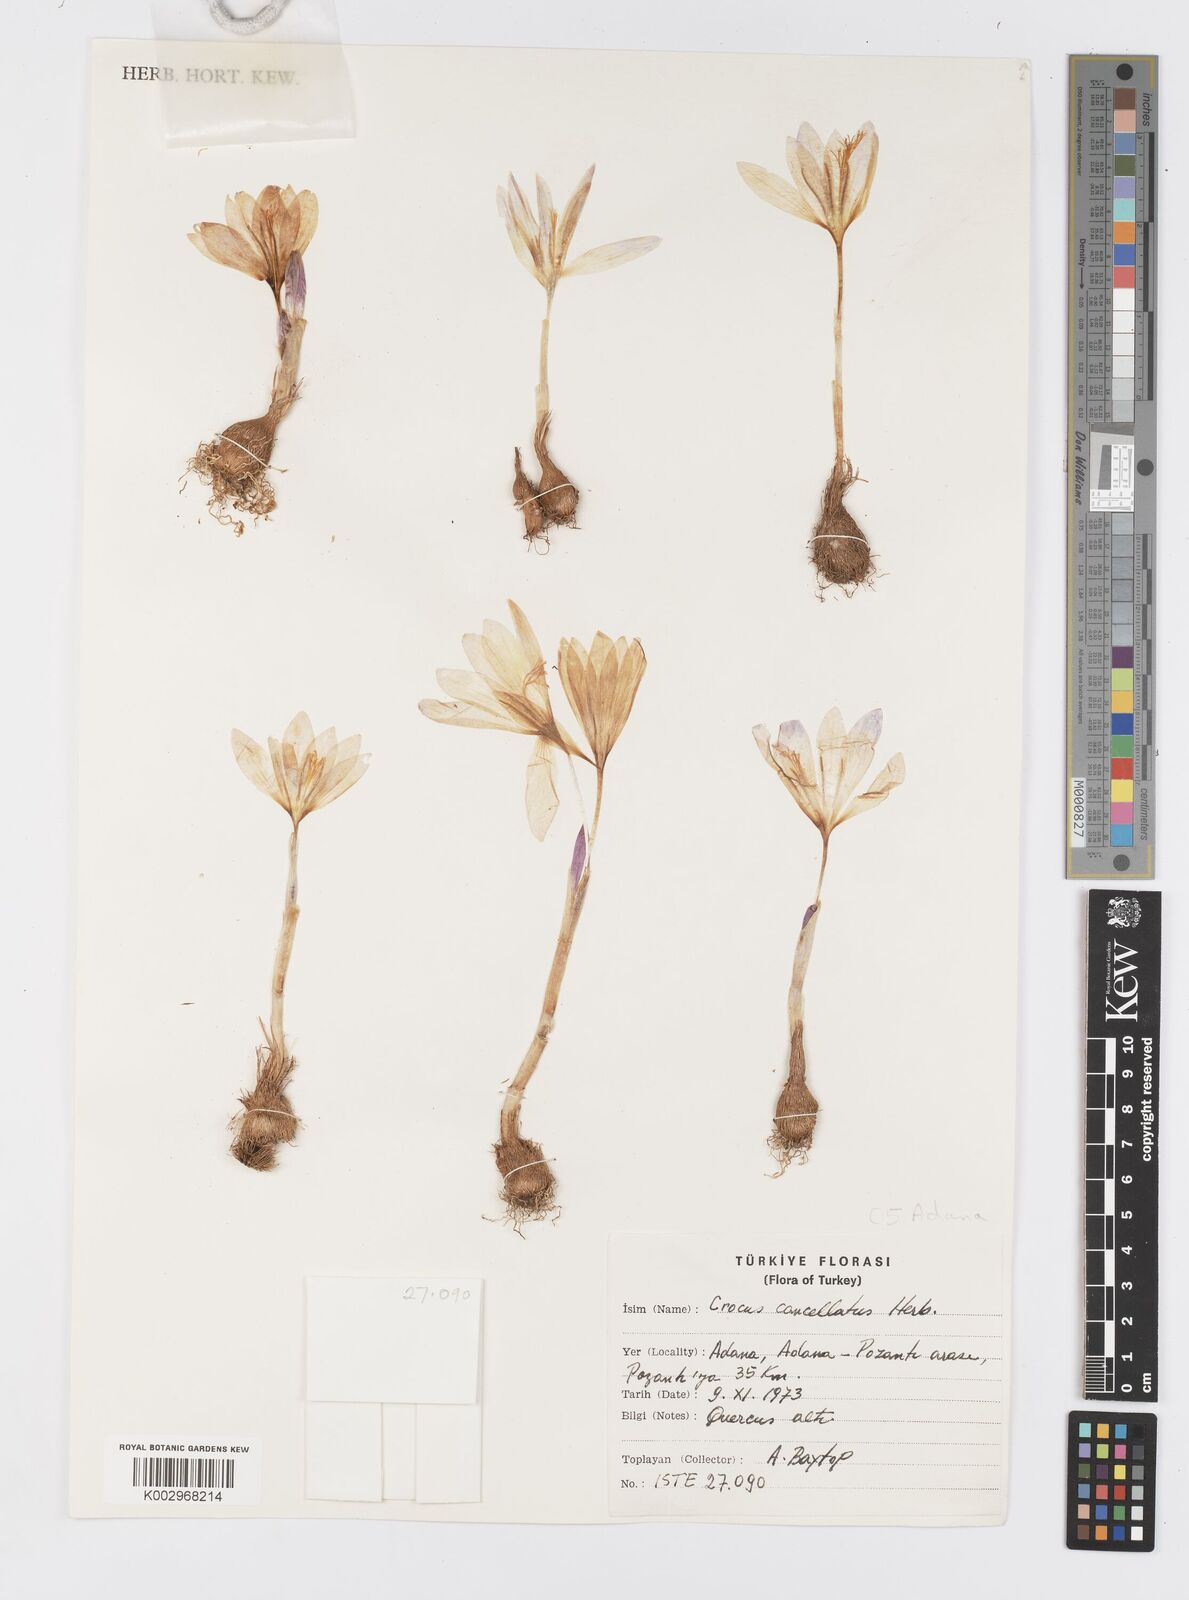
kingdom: Plantae
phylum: Tracheophyta
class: Liliopsida
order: Asparagales
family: Iridaceae
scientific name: Iridaceae
